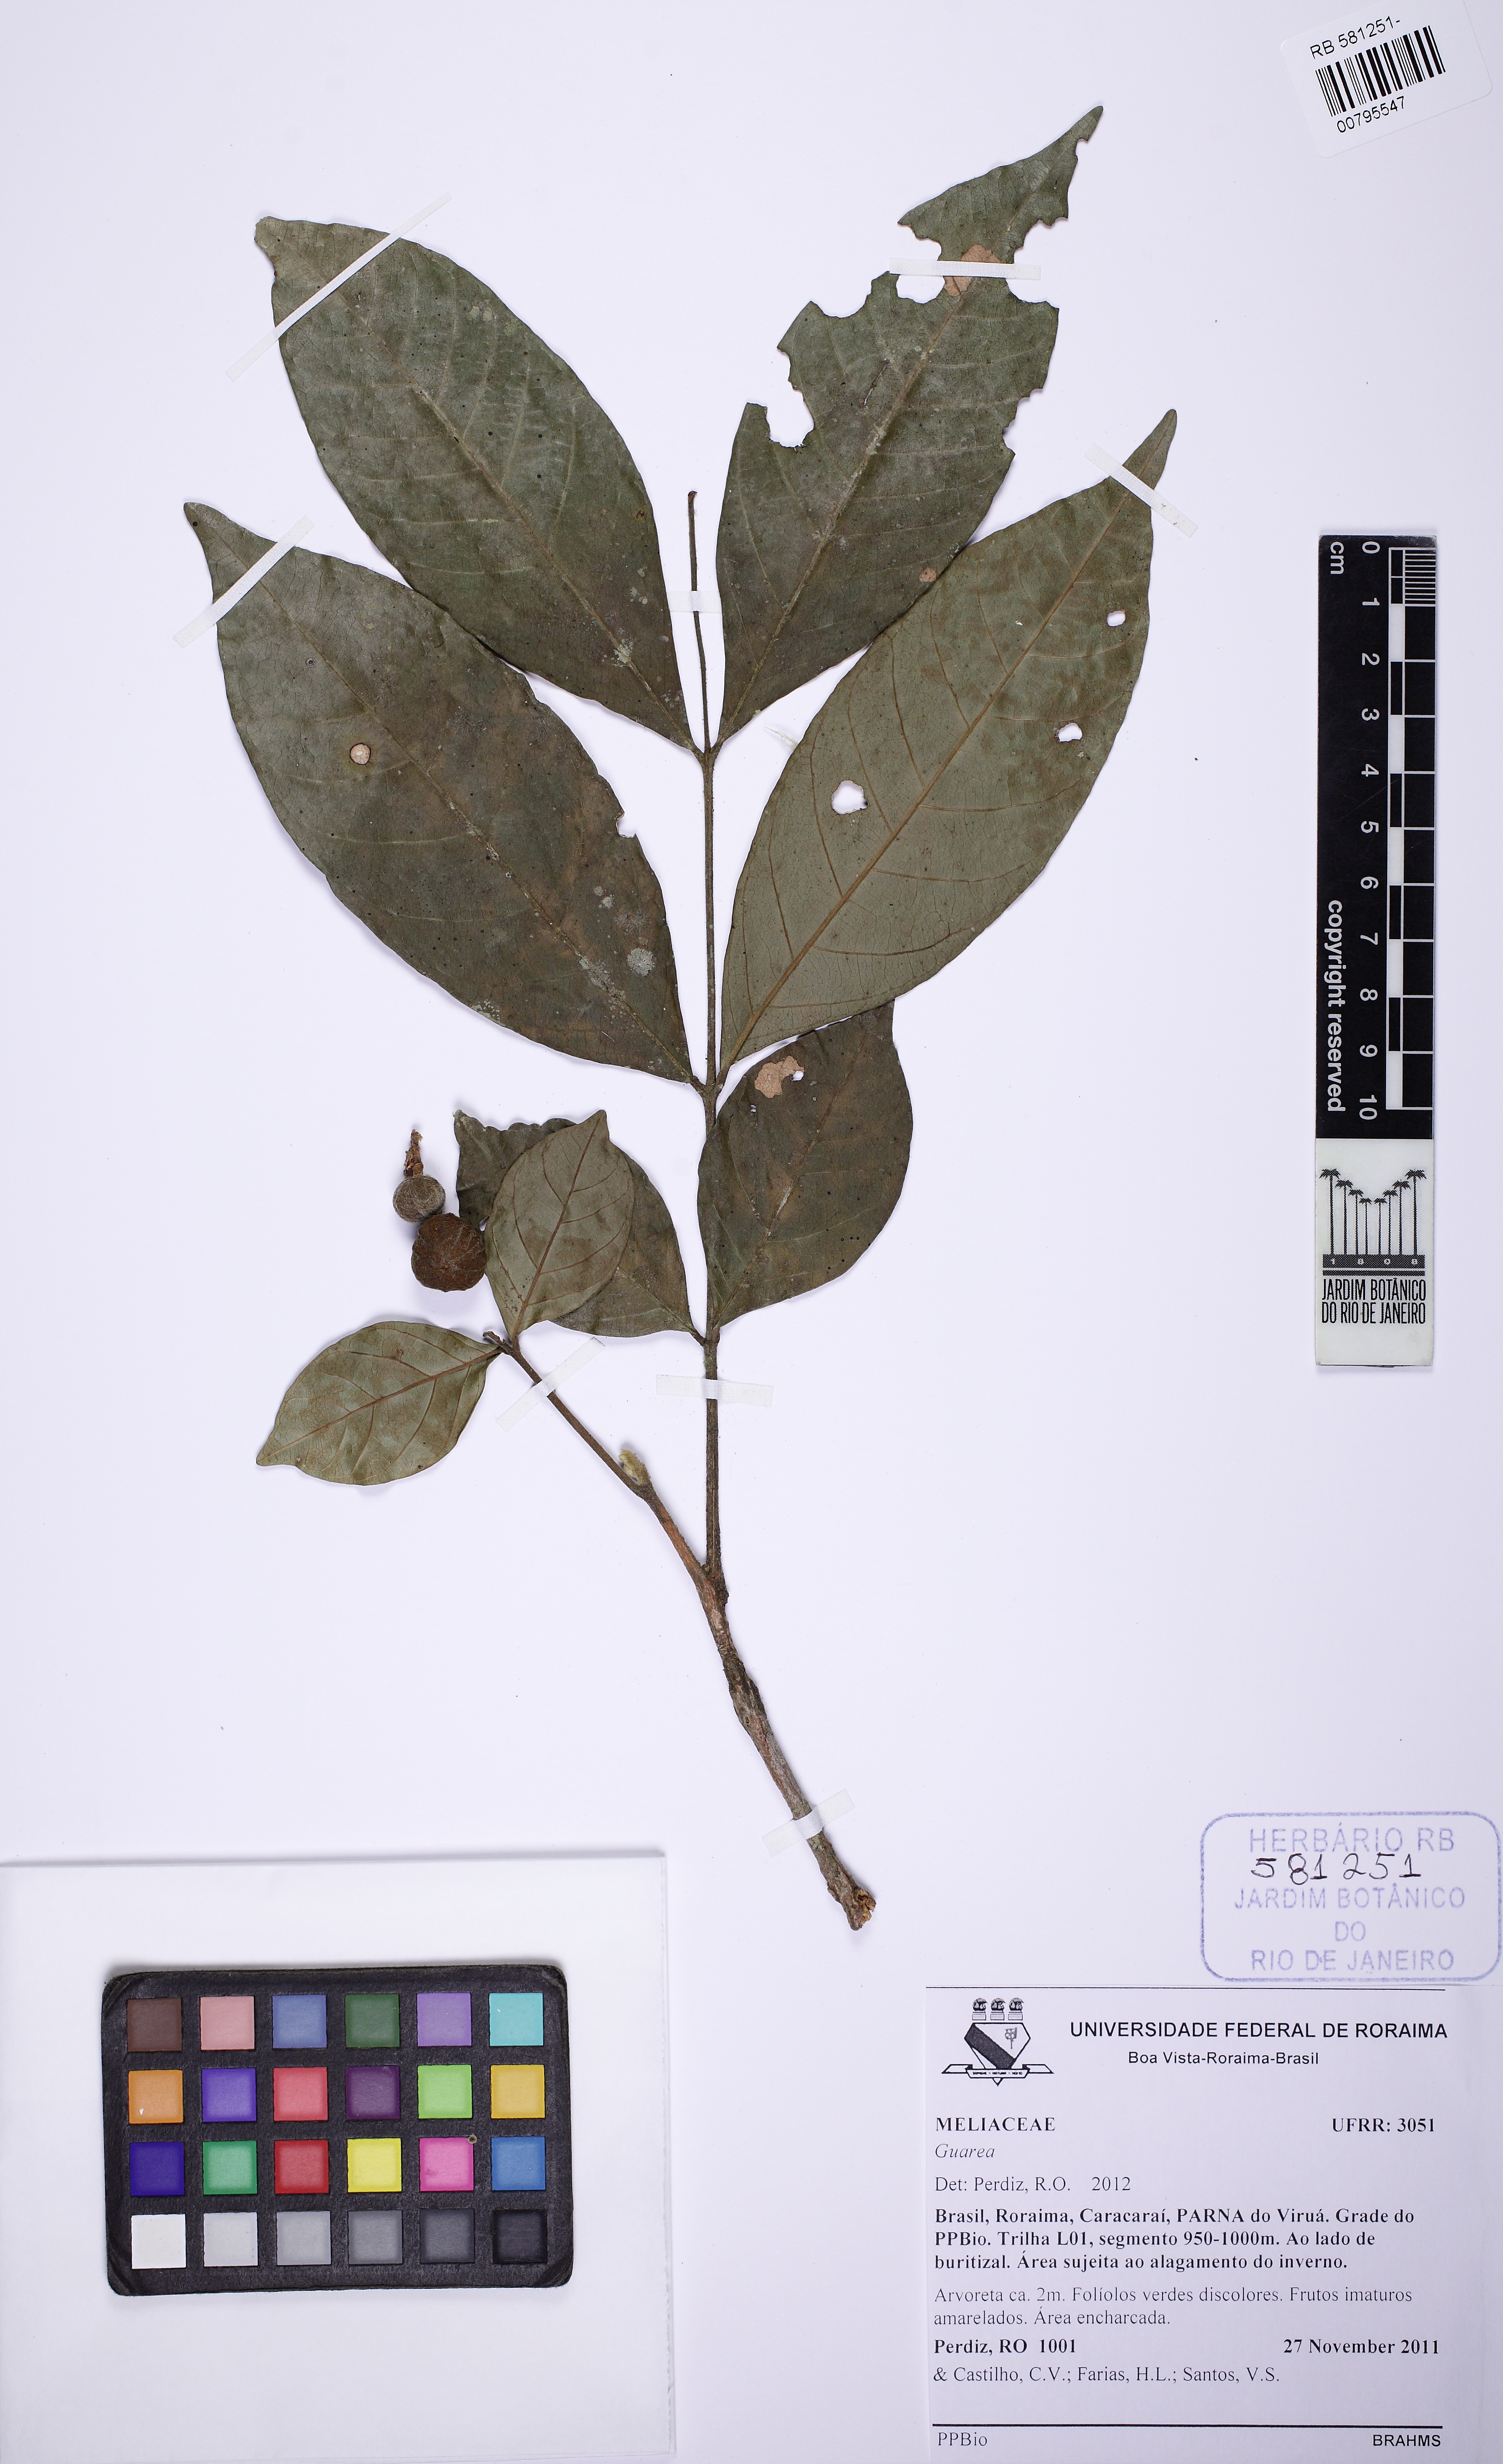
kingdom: Plantae
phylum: Tracheophyta
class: Magnoliopsida
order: Sapindales
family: Meliaceae
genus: Guarea
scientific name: Guarea
